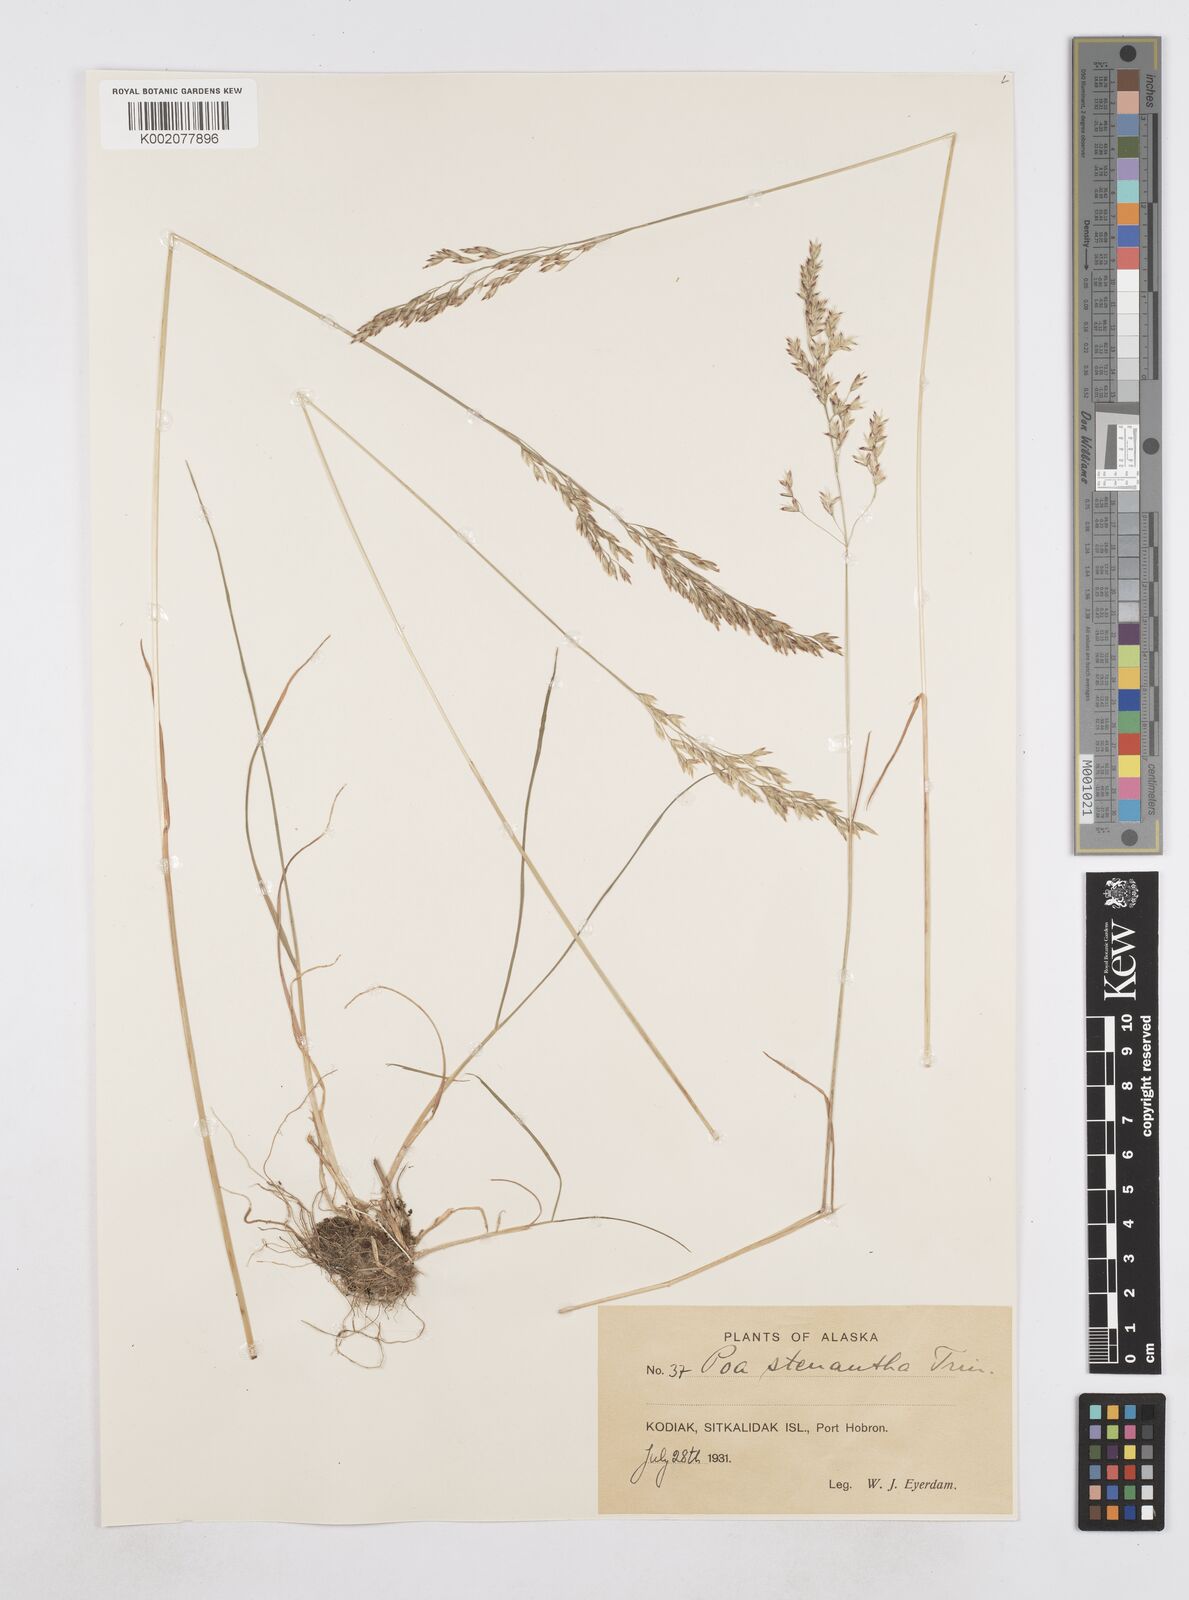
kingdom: Plantae
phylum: Tracheophyta
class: Liliopsida
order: Poales
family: Poaceae
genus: Poa
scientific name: Poa stenantha
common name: Narrow-flowered bluegrass
